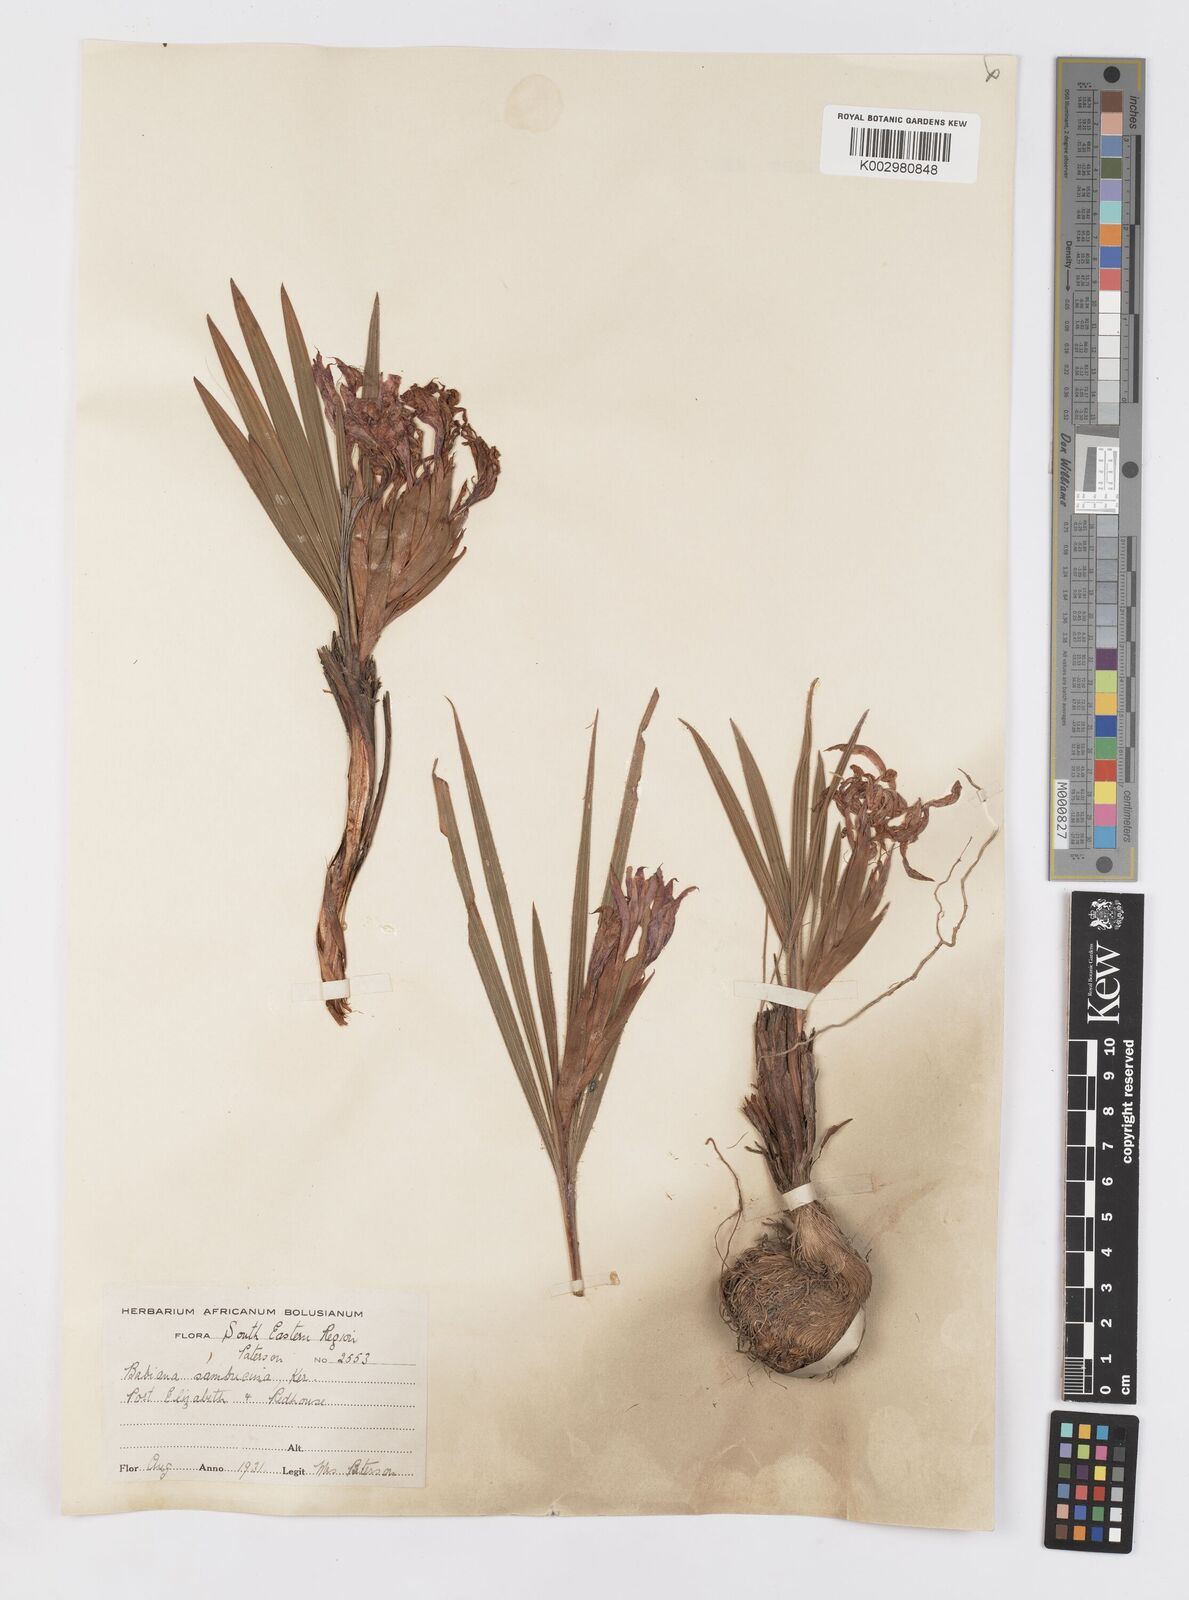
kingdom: Plantae
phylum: Tracheophyta
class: Liliopsida
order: Asparagales
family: Iridaceae
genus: Babiana
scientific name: Babiana sambucina
